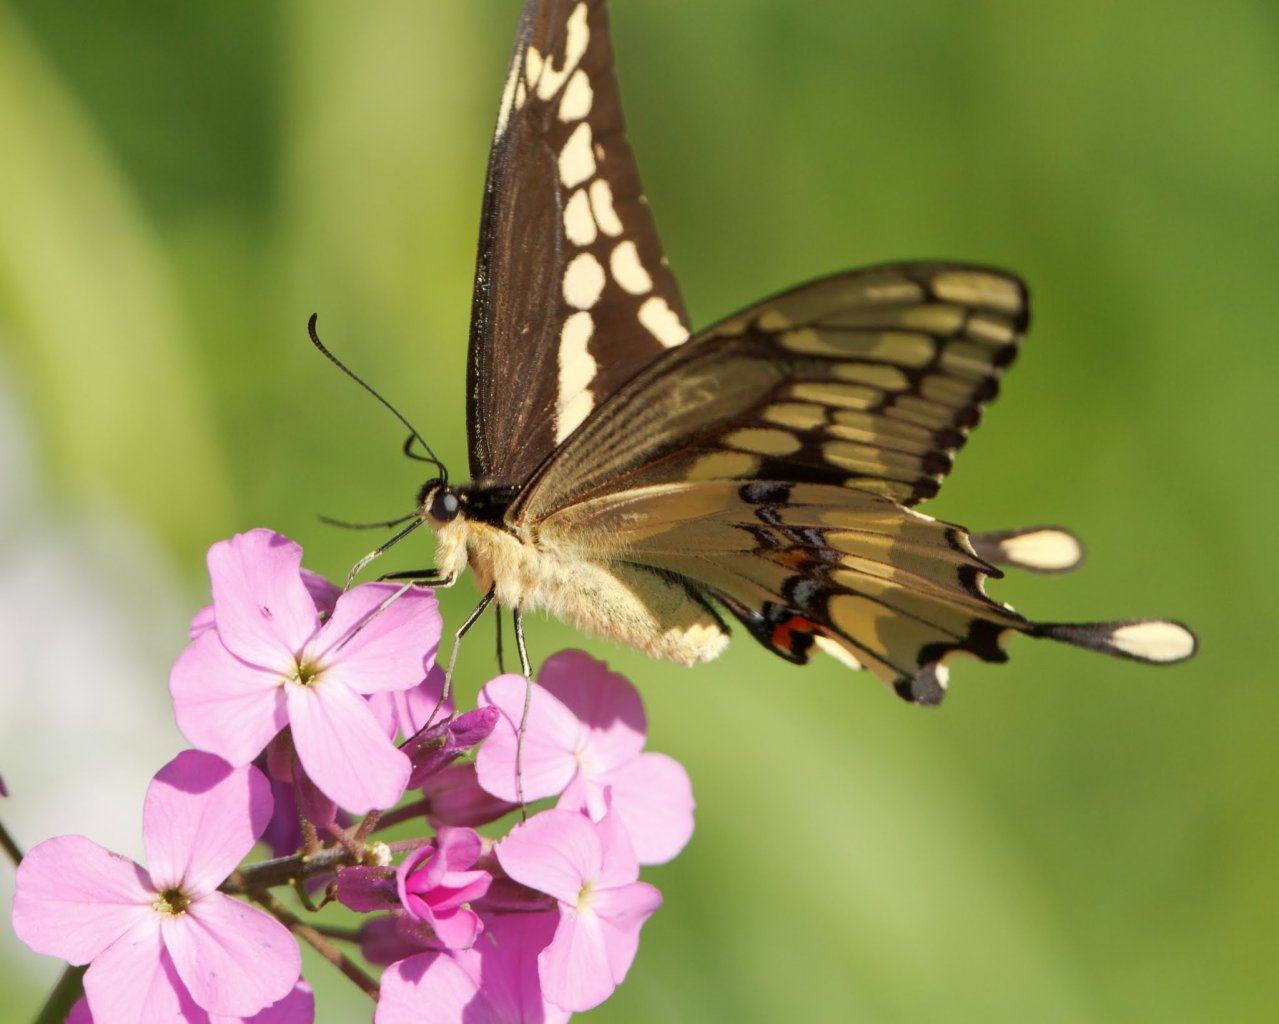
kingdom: Animalia
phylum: Arthropoda
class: Insecta
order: Lepidoptera
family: Papilionidae
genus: Papilio
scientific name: Papilio cresphontes
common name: Eastern Giant Swallowtail
